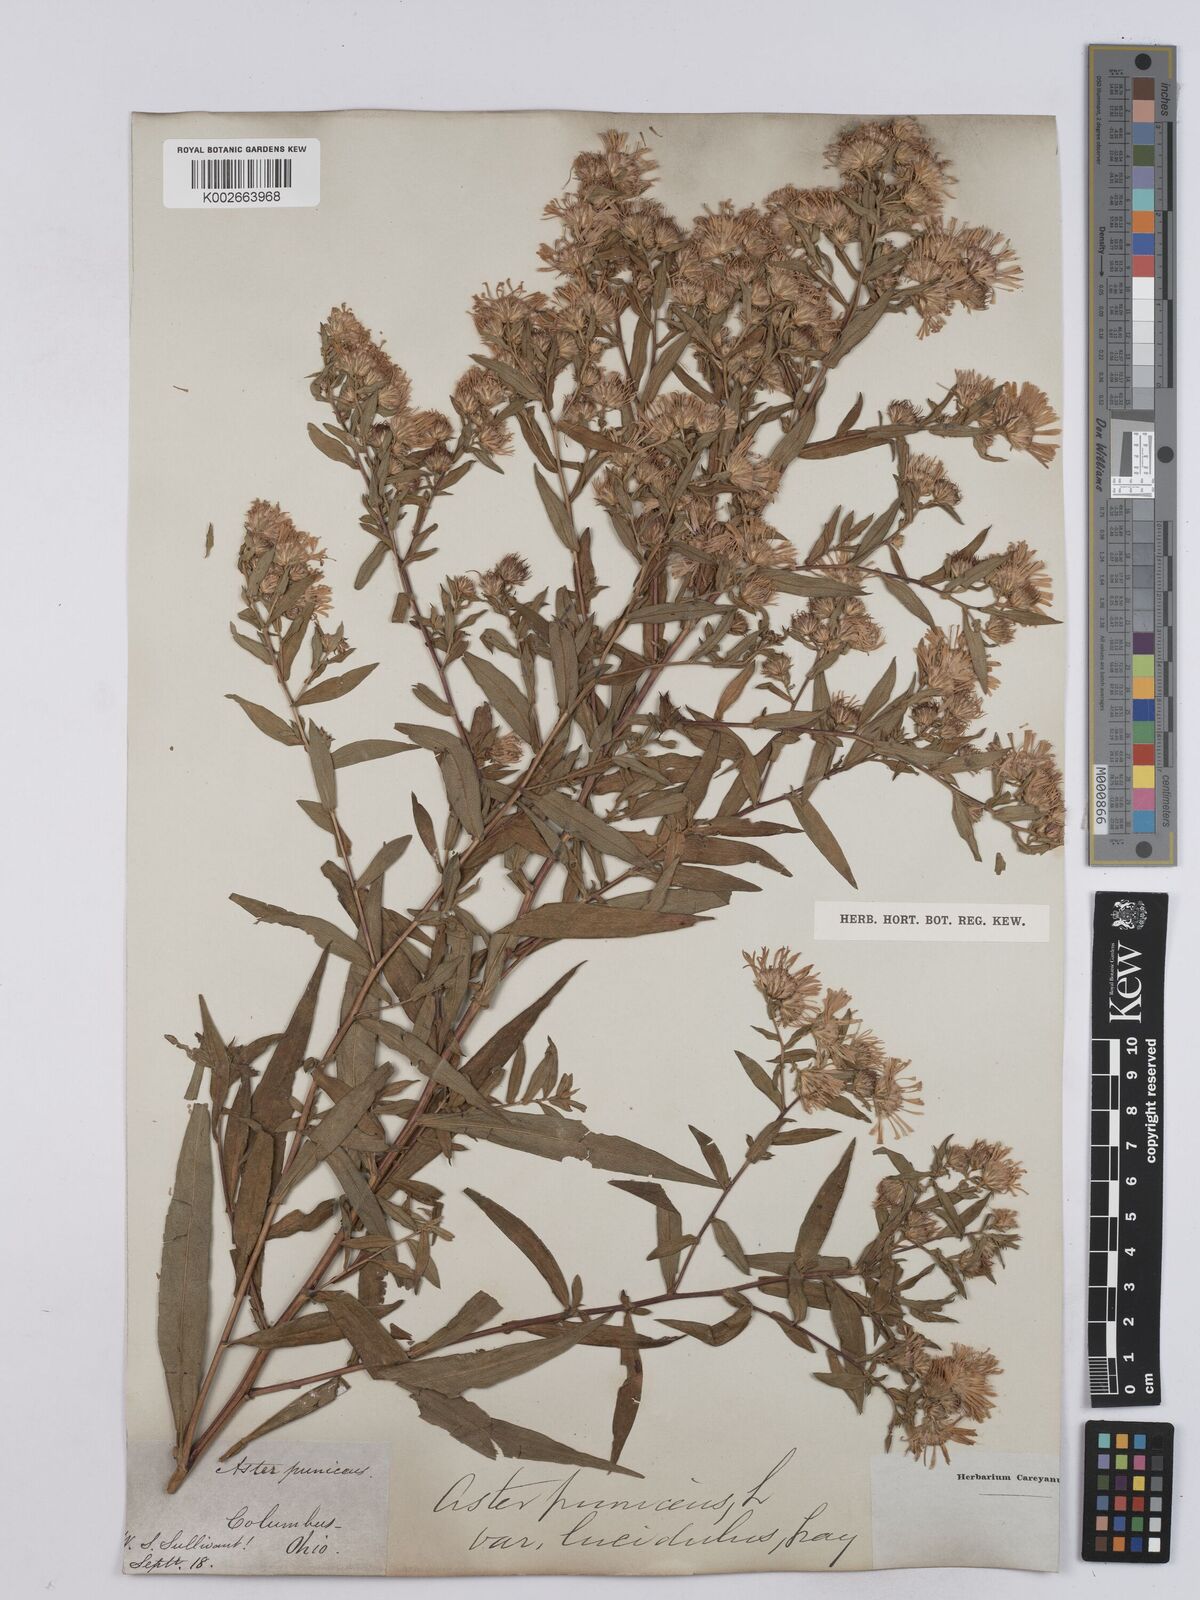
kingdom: Plantae
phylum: Tracheophyta
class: Magnoliopsida
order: Asterales
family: Asteraceae
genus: Symphyotrichum
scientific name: Symphyotrichum puniceum
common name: Bog aster
